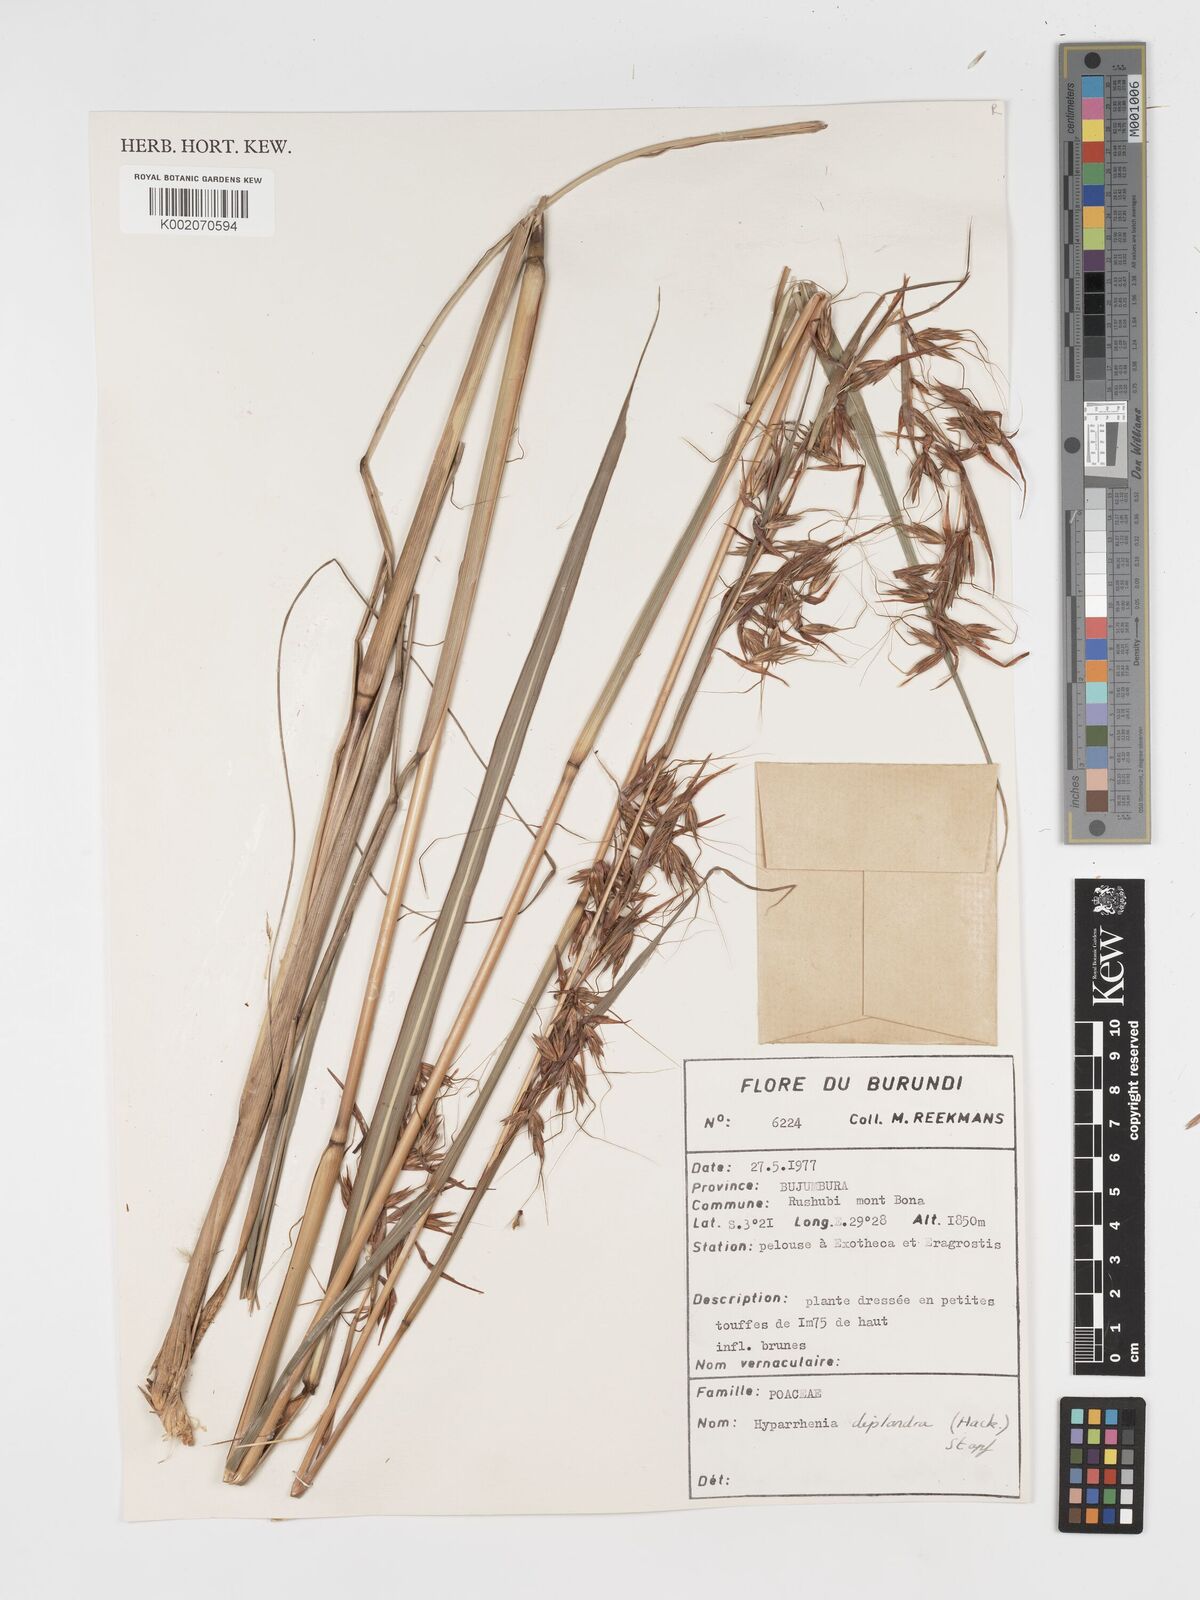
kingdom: Plantae
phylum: Tracheophyta
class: Liliopsida
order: Poales
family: Poaceae
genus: Hyparrhenia
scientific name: Hyparrhenia diplandra
